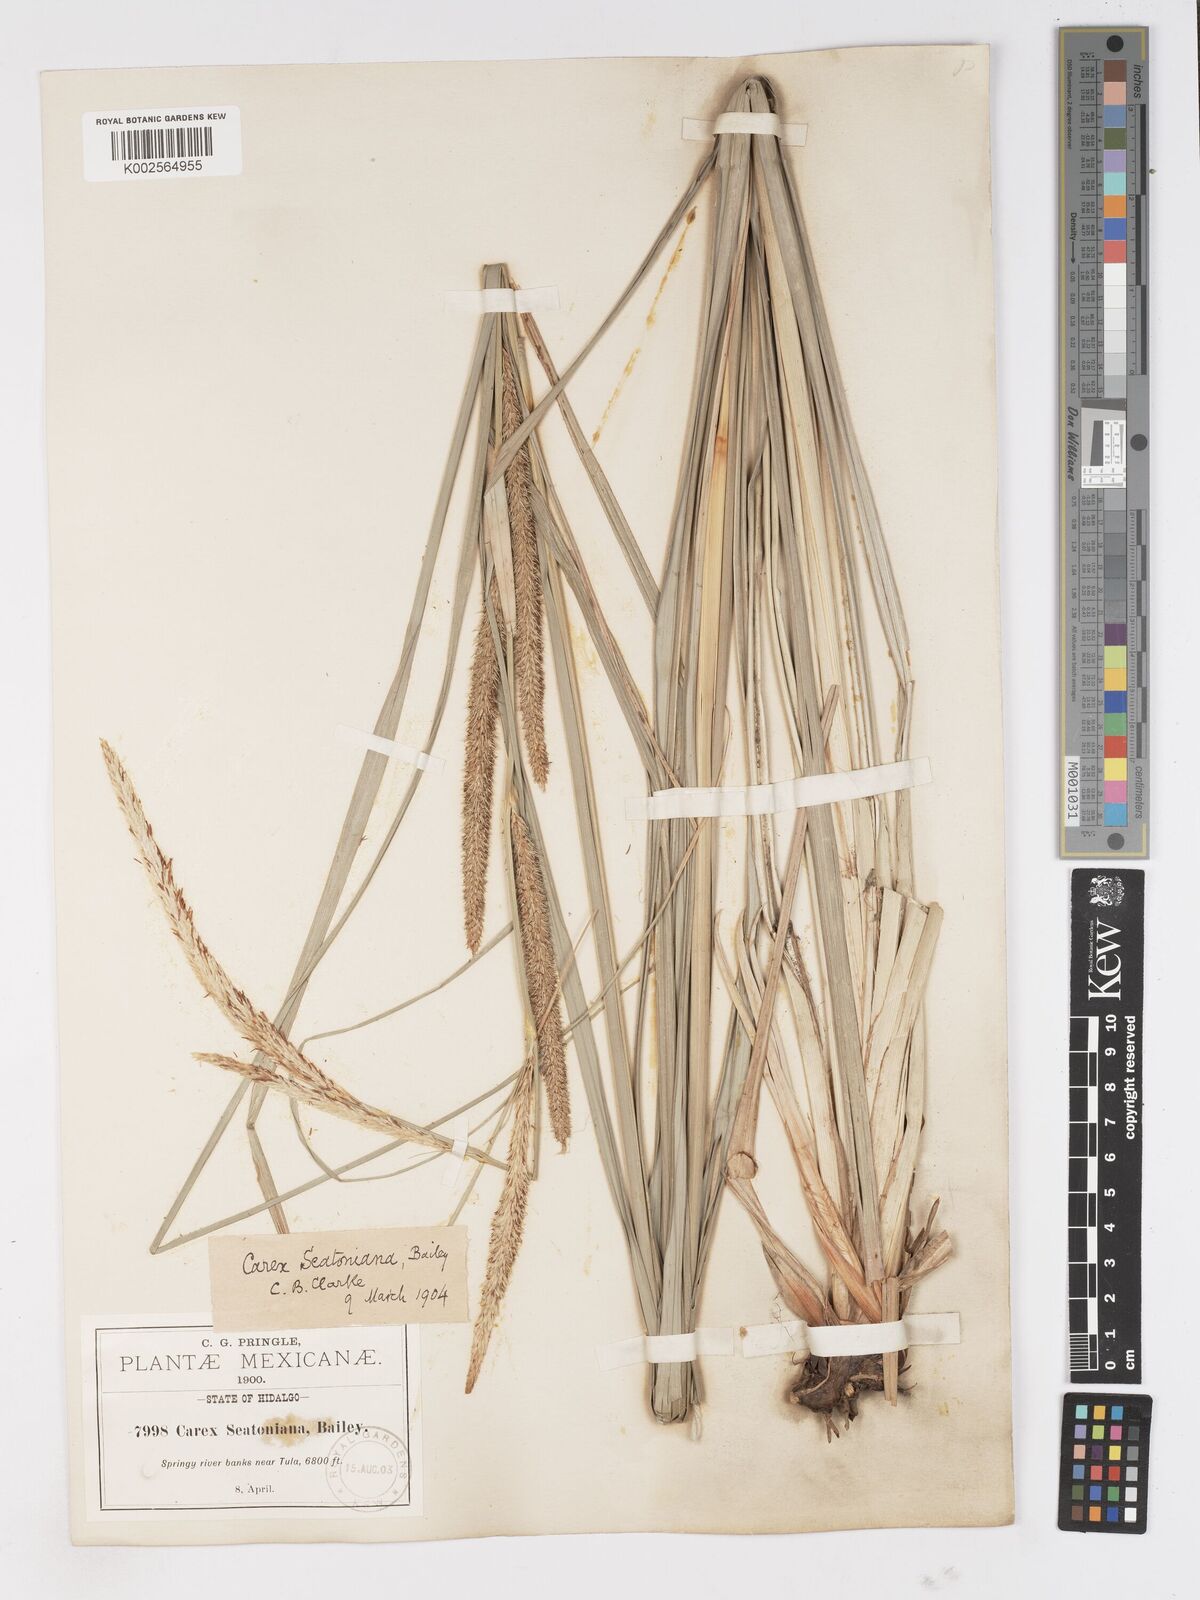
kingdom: Plantae
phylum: Tracheophyta
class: Liliopsida
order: Poales
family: Cyperaceae
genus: Carex
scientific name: Carex spissa
